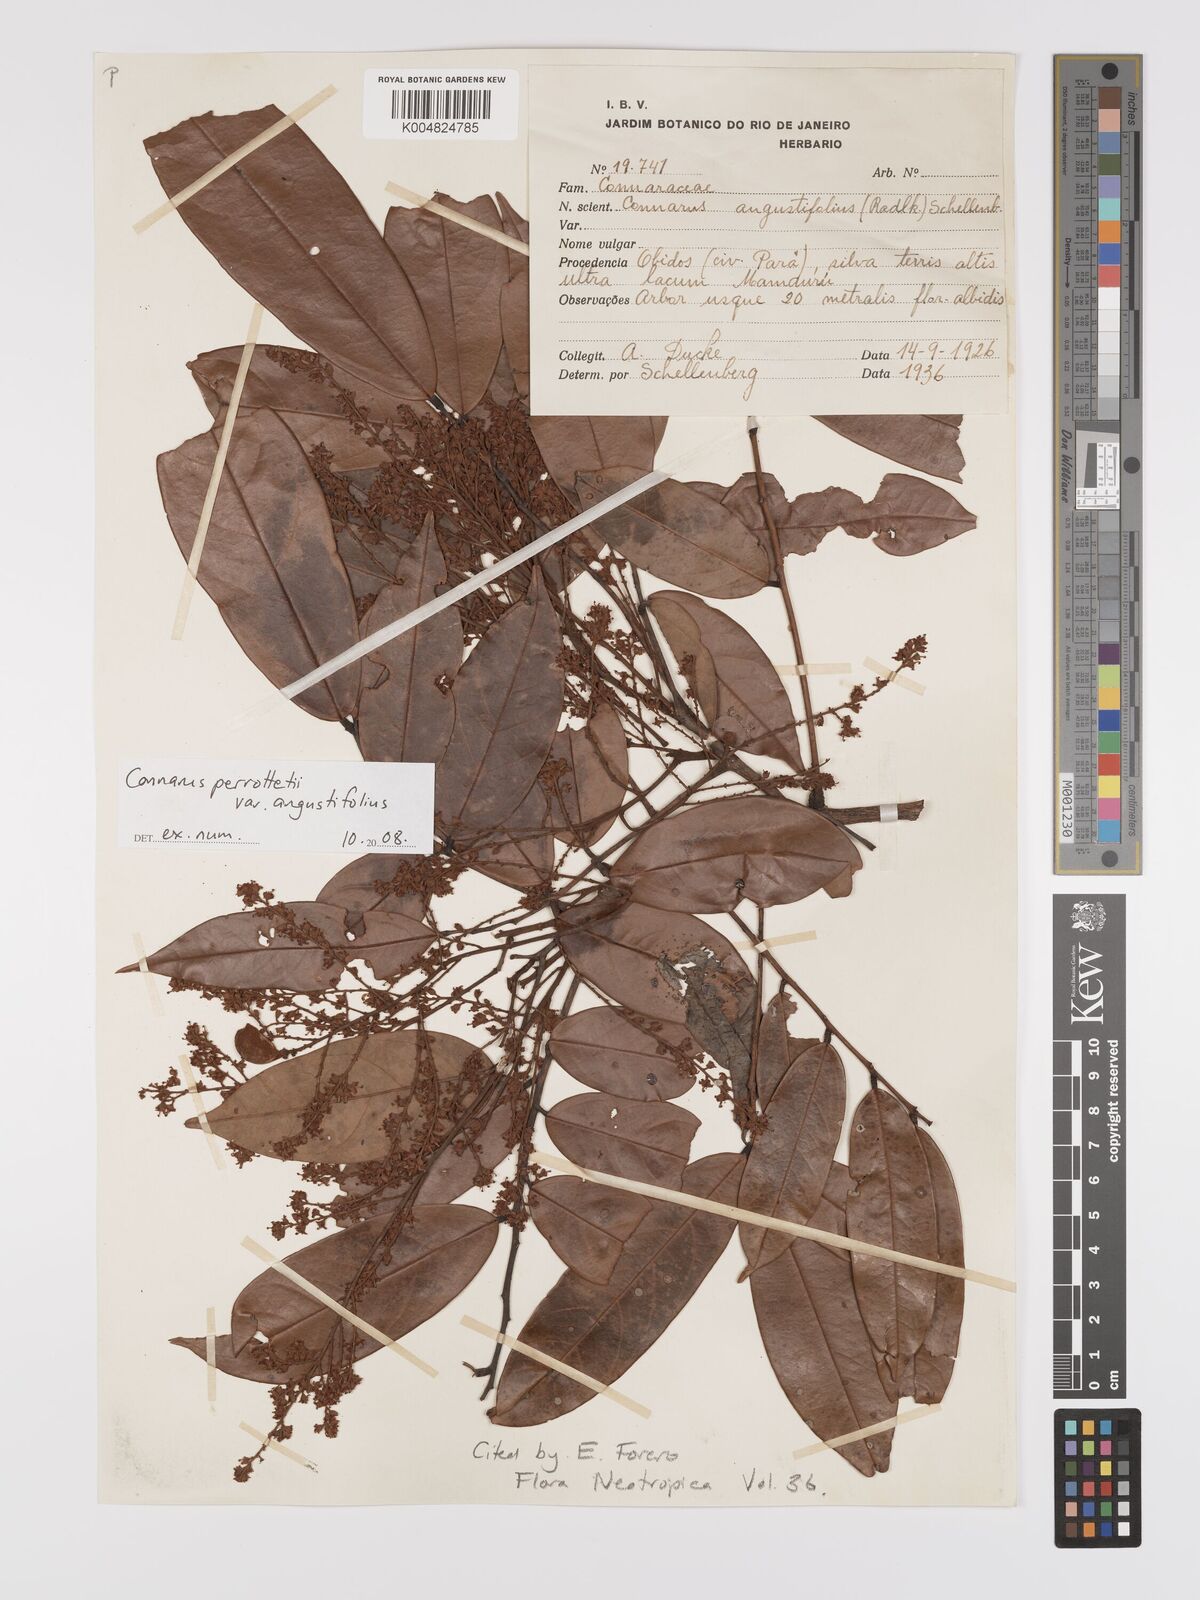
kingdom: Plantae
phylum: Tracheophyta
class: Magnoliopsida
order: Oxalidales
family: Connaraceae
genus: Connarus
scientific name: Connarus perrottetii
